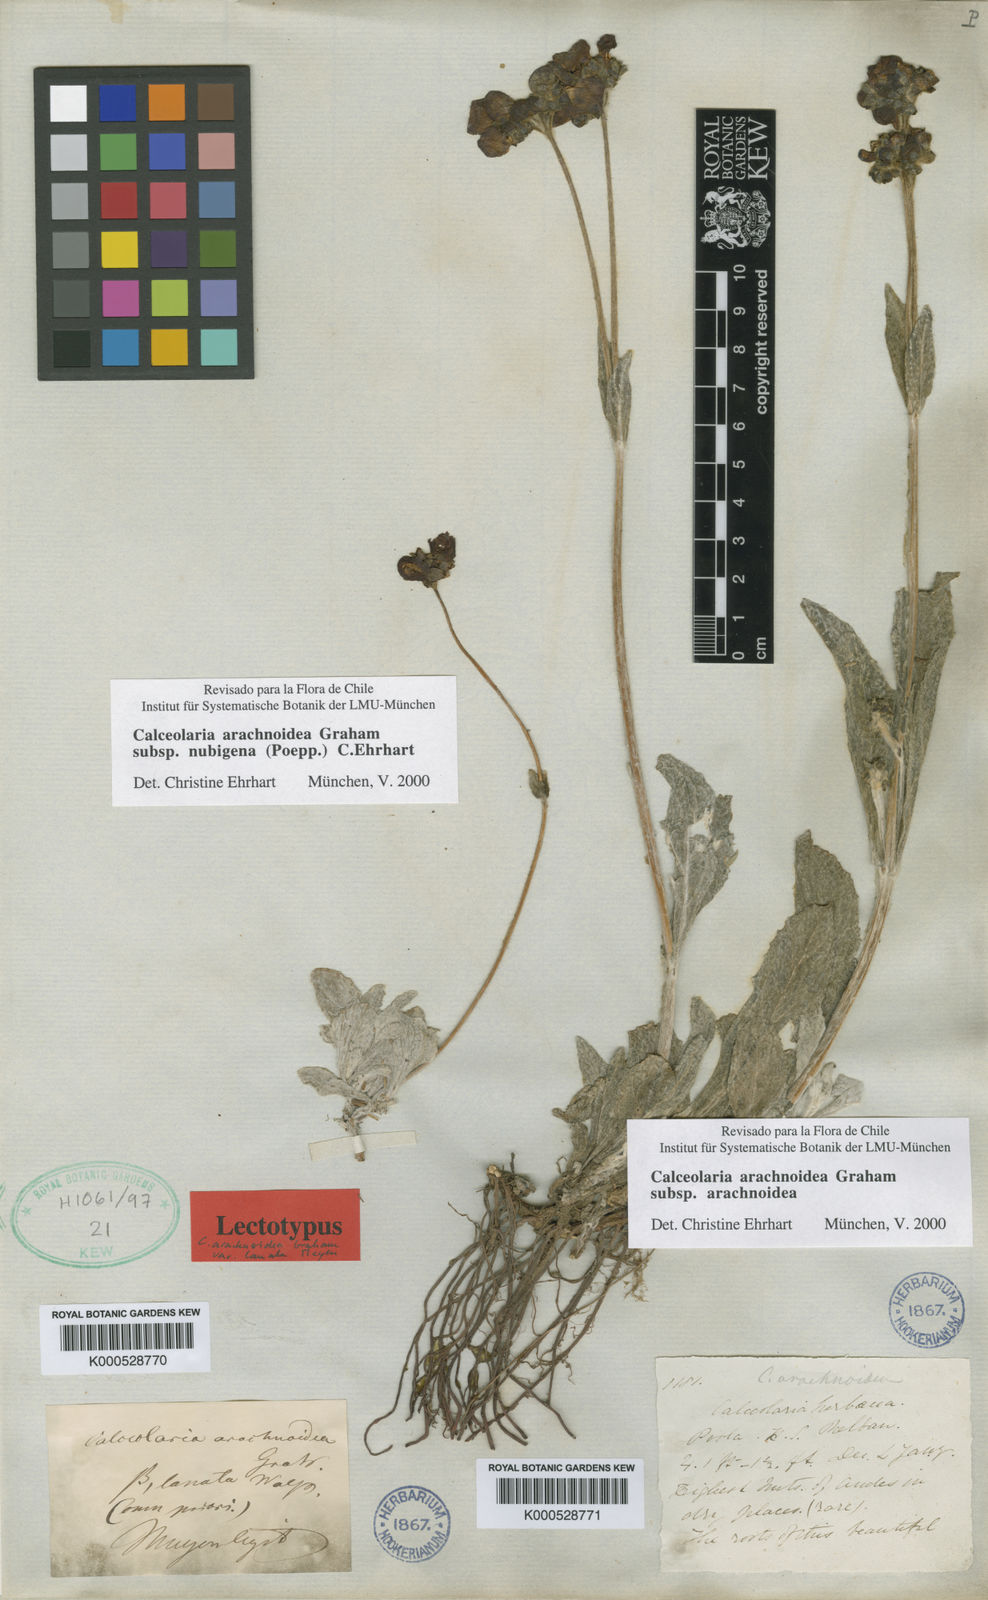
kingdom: Plantae
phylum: Tracheophyta
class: Magnoliopsida
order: Lamiales
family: Calceolariaceae
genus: Calceolaria
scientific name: Calceolaria arachnoidea
